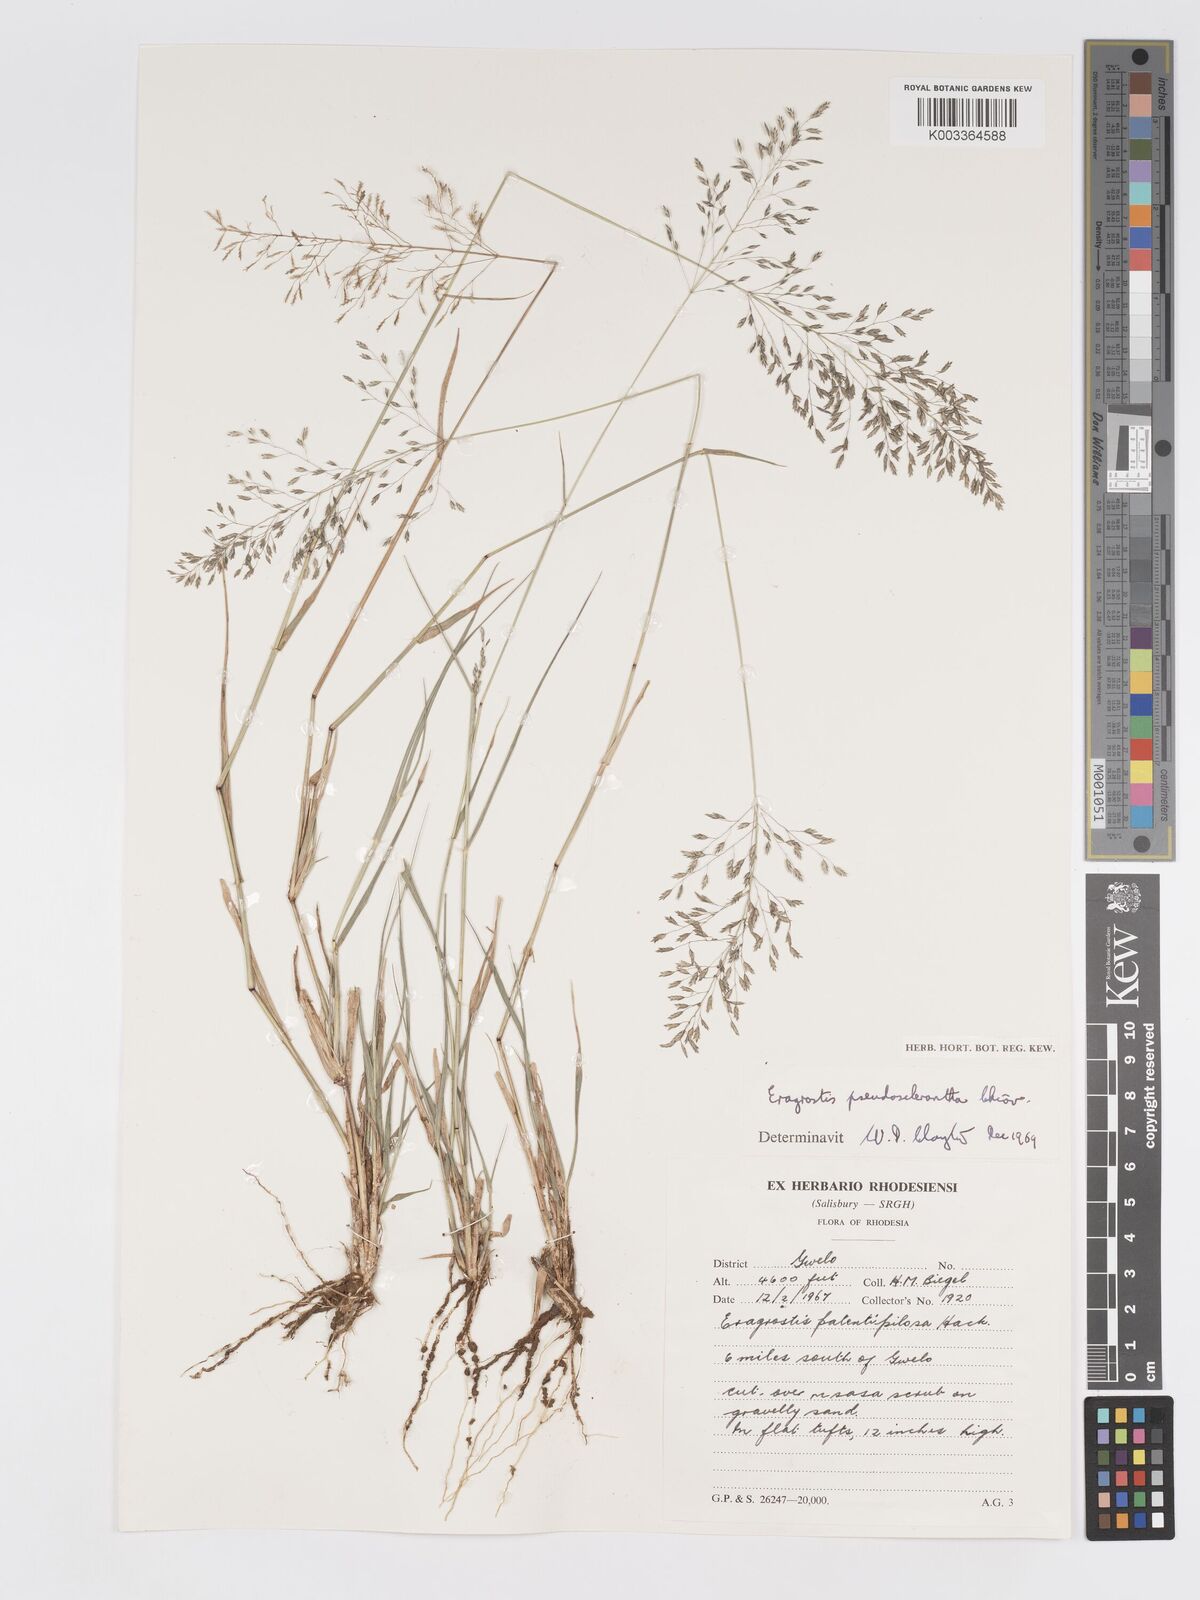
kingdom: Plantae
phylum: Tracheophyta
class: Liliopsida
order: Poales
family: Poaceae
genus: Eragrostis
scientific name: Eragrostis patentipilosa
